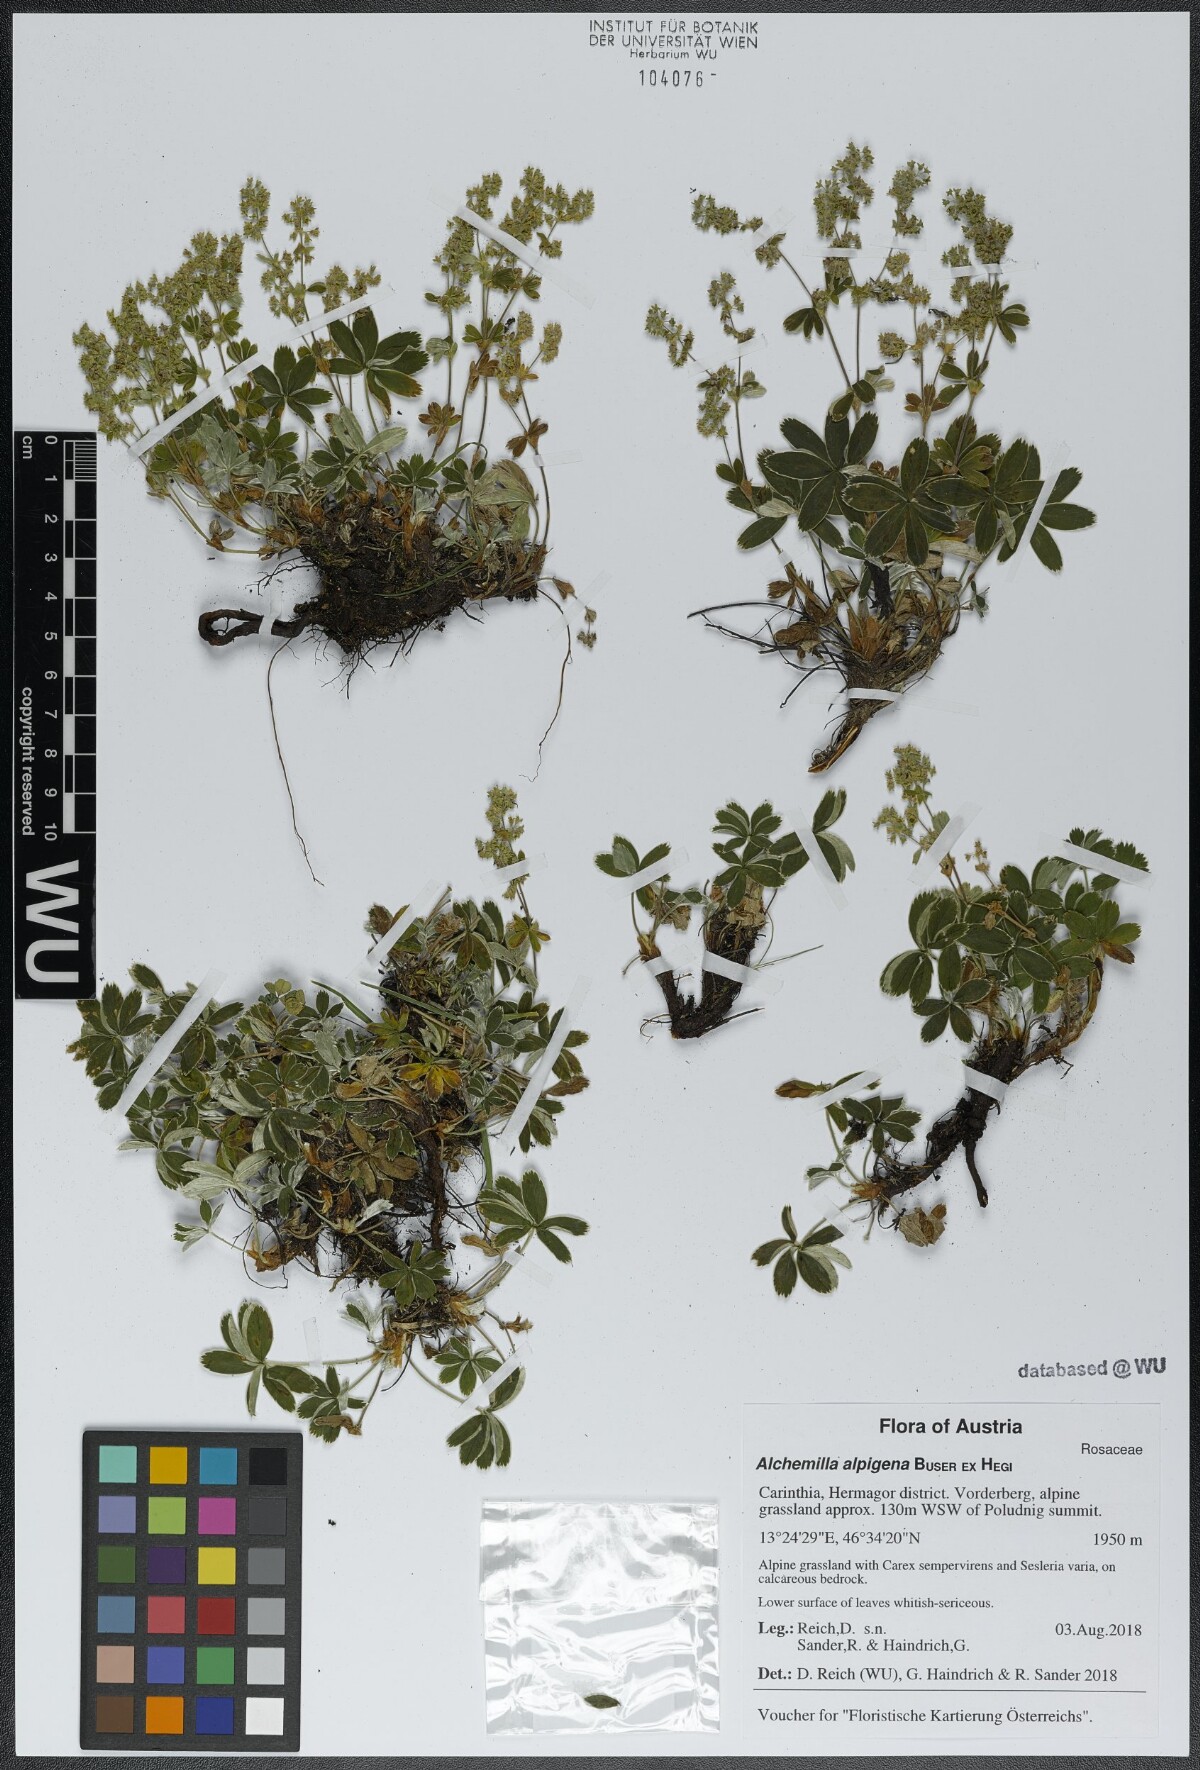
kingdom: Plantae
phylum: Tracheophyta
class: Magnoliopsida
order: Rosales
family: Rosaceae
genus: Alchemilla
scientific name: Alchemilla alpinula
